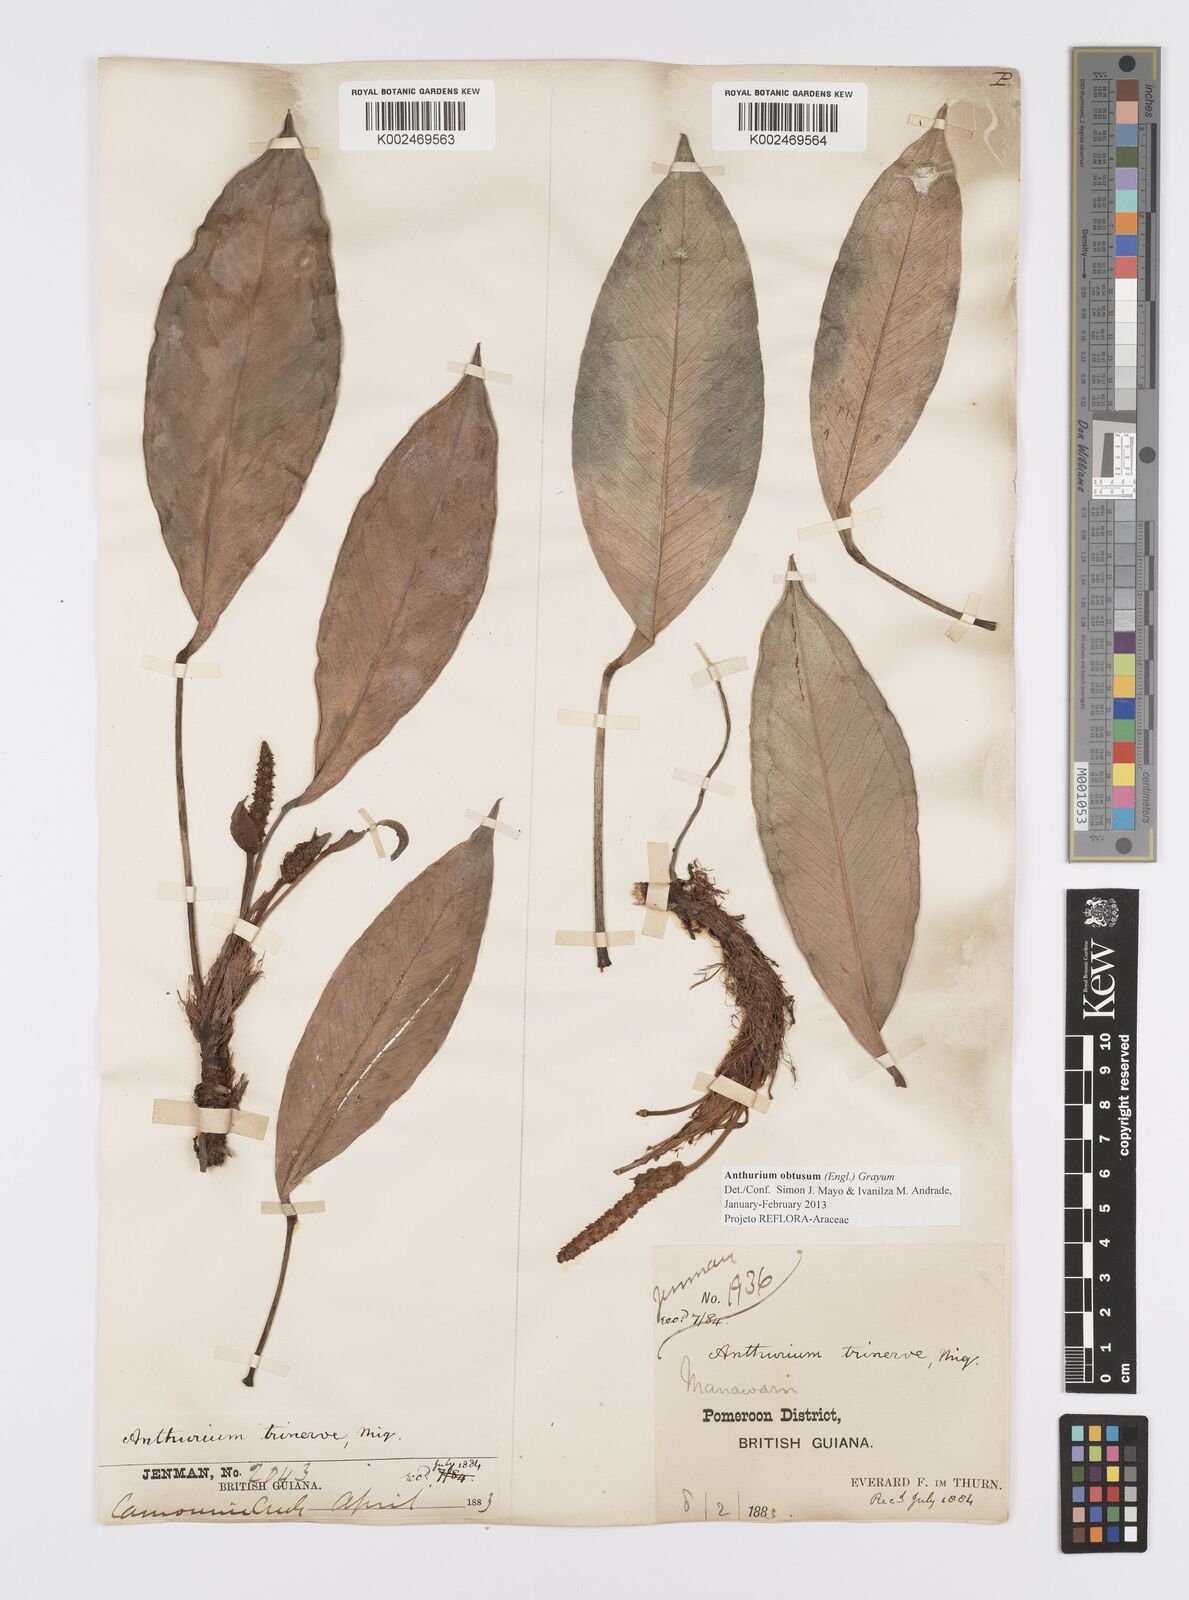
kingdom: Plantae
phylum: Tracheophyta
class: Liliopsida
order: Alismatales
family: Araceae
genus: Anthurium
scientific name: Anthurium obtusum
